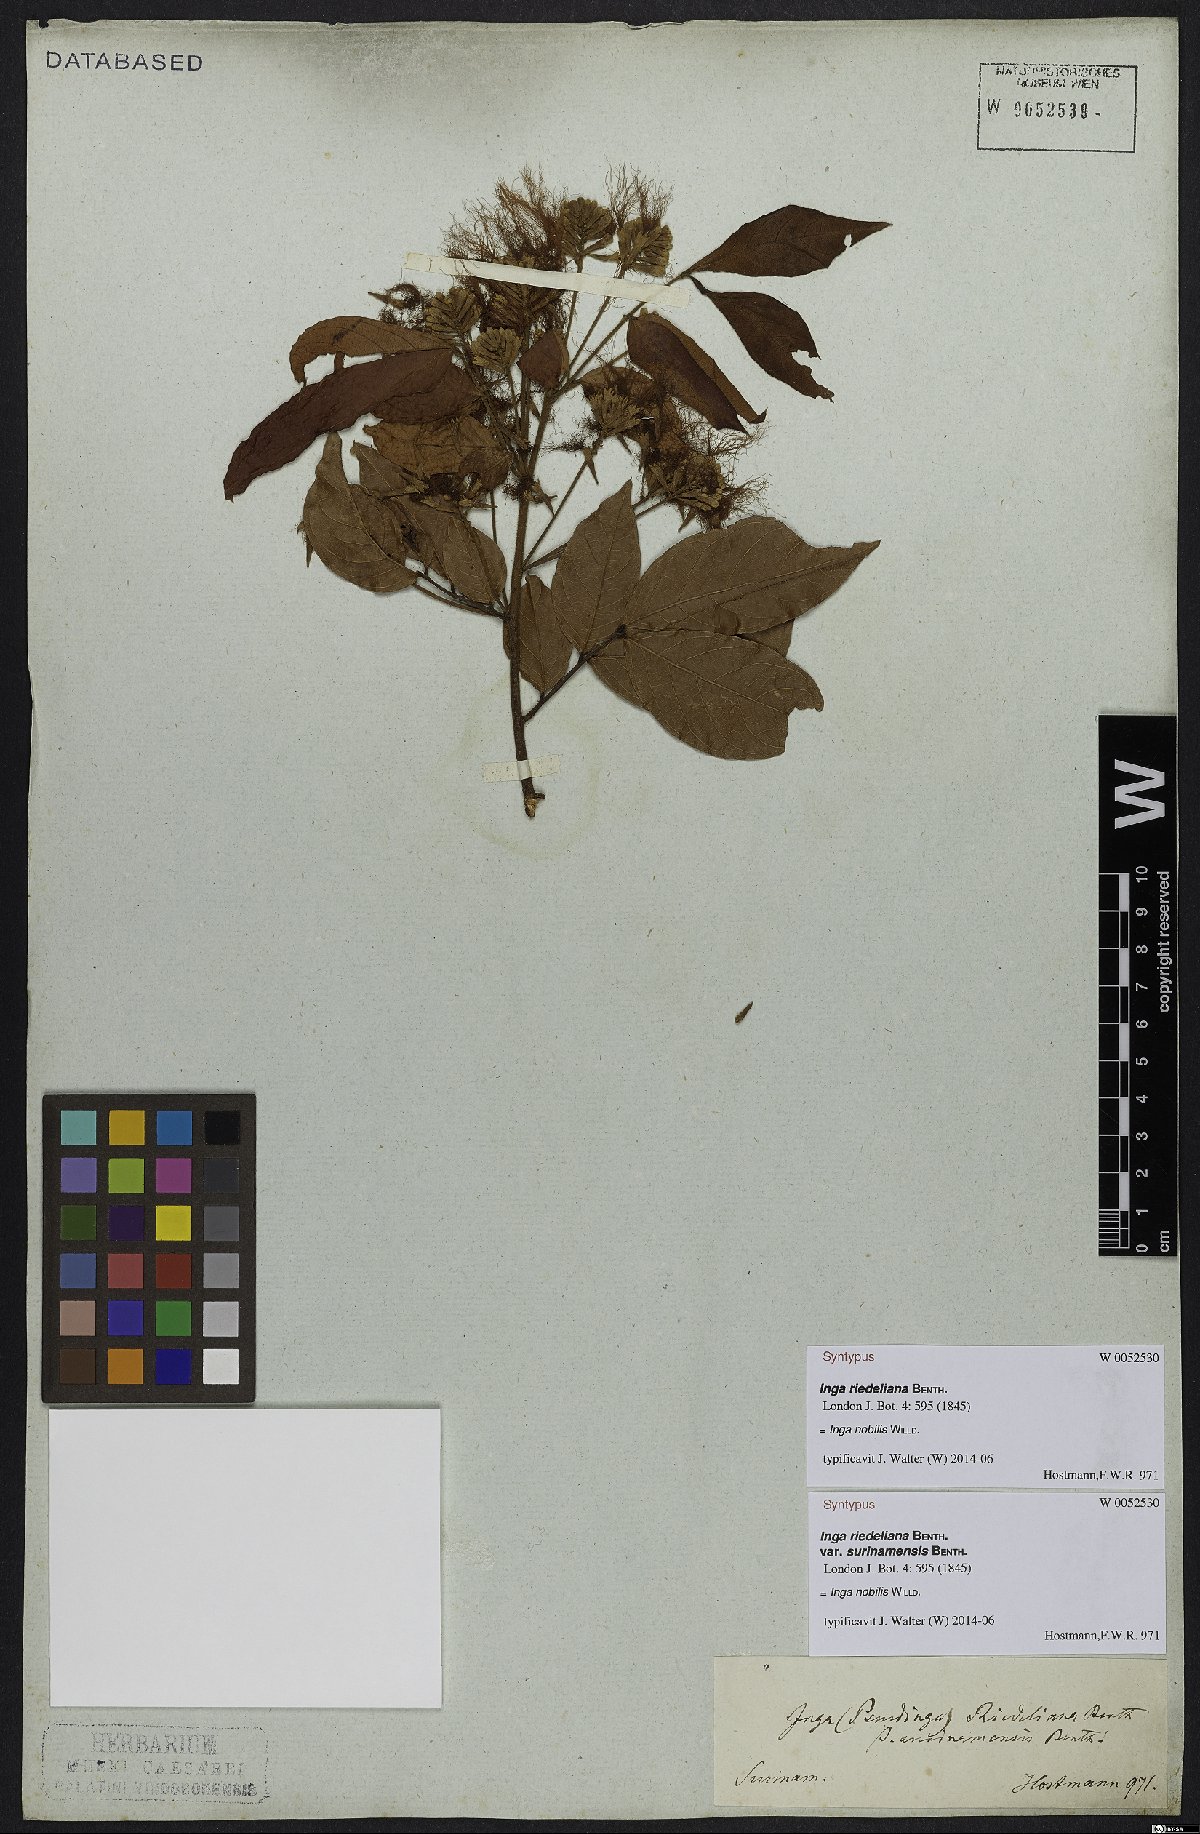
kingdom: Plantae
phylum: Tracheophyta
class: Magnoliopsida
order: Fabales
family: Fabaceae
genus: Inga
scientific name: Inga nobilis
